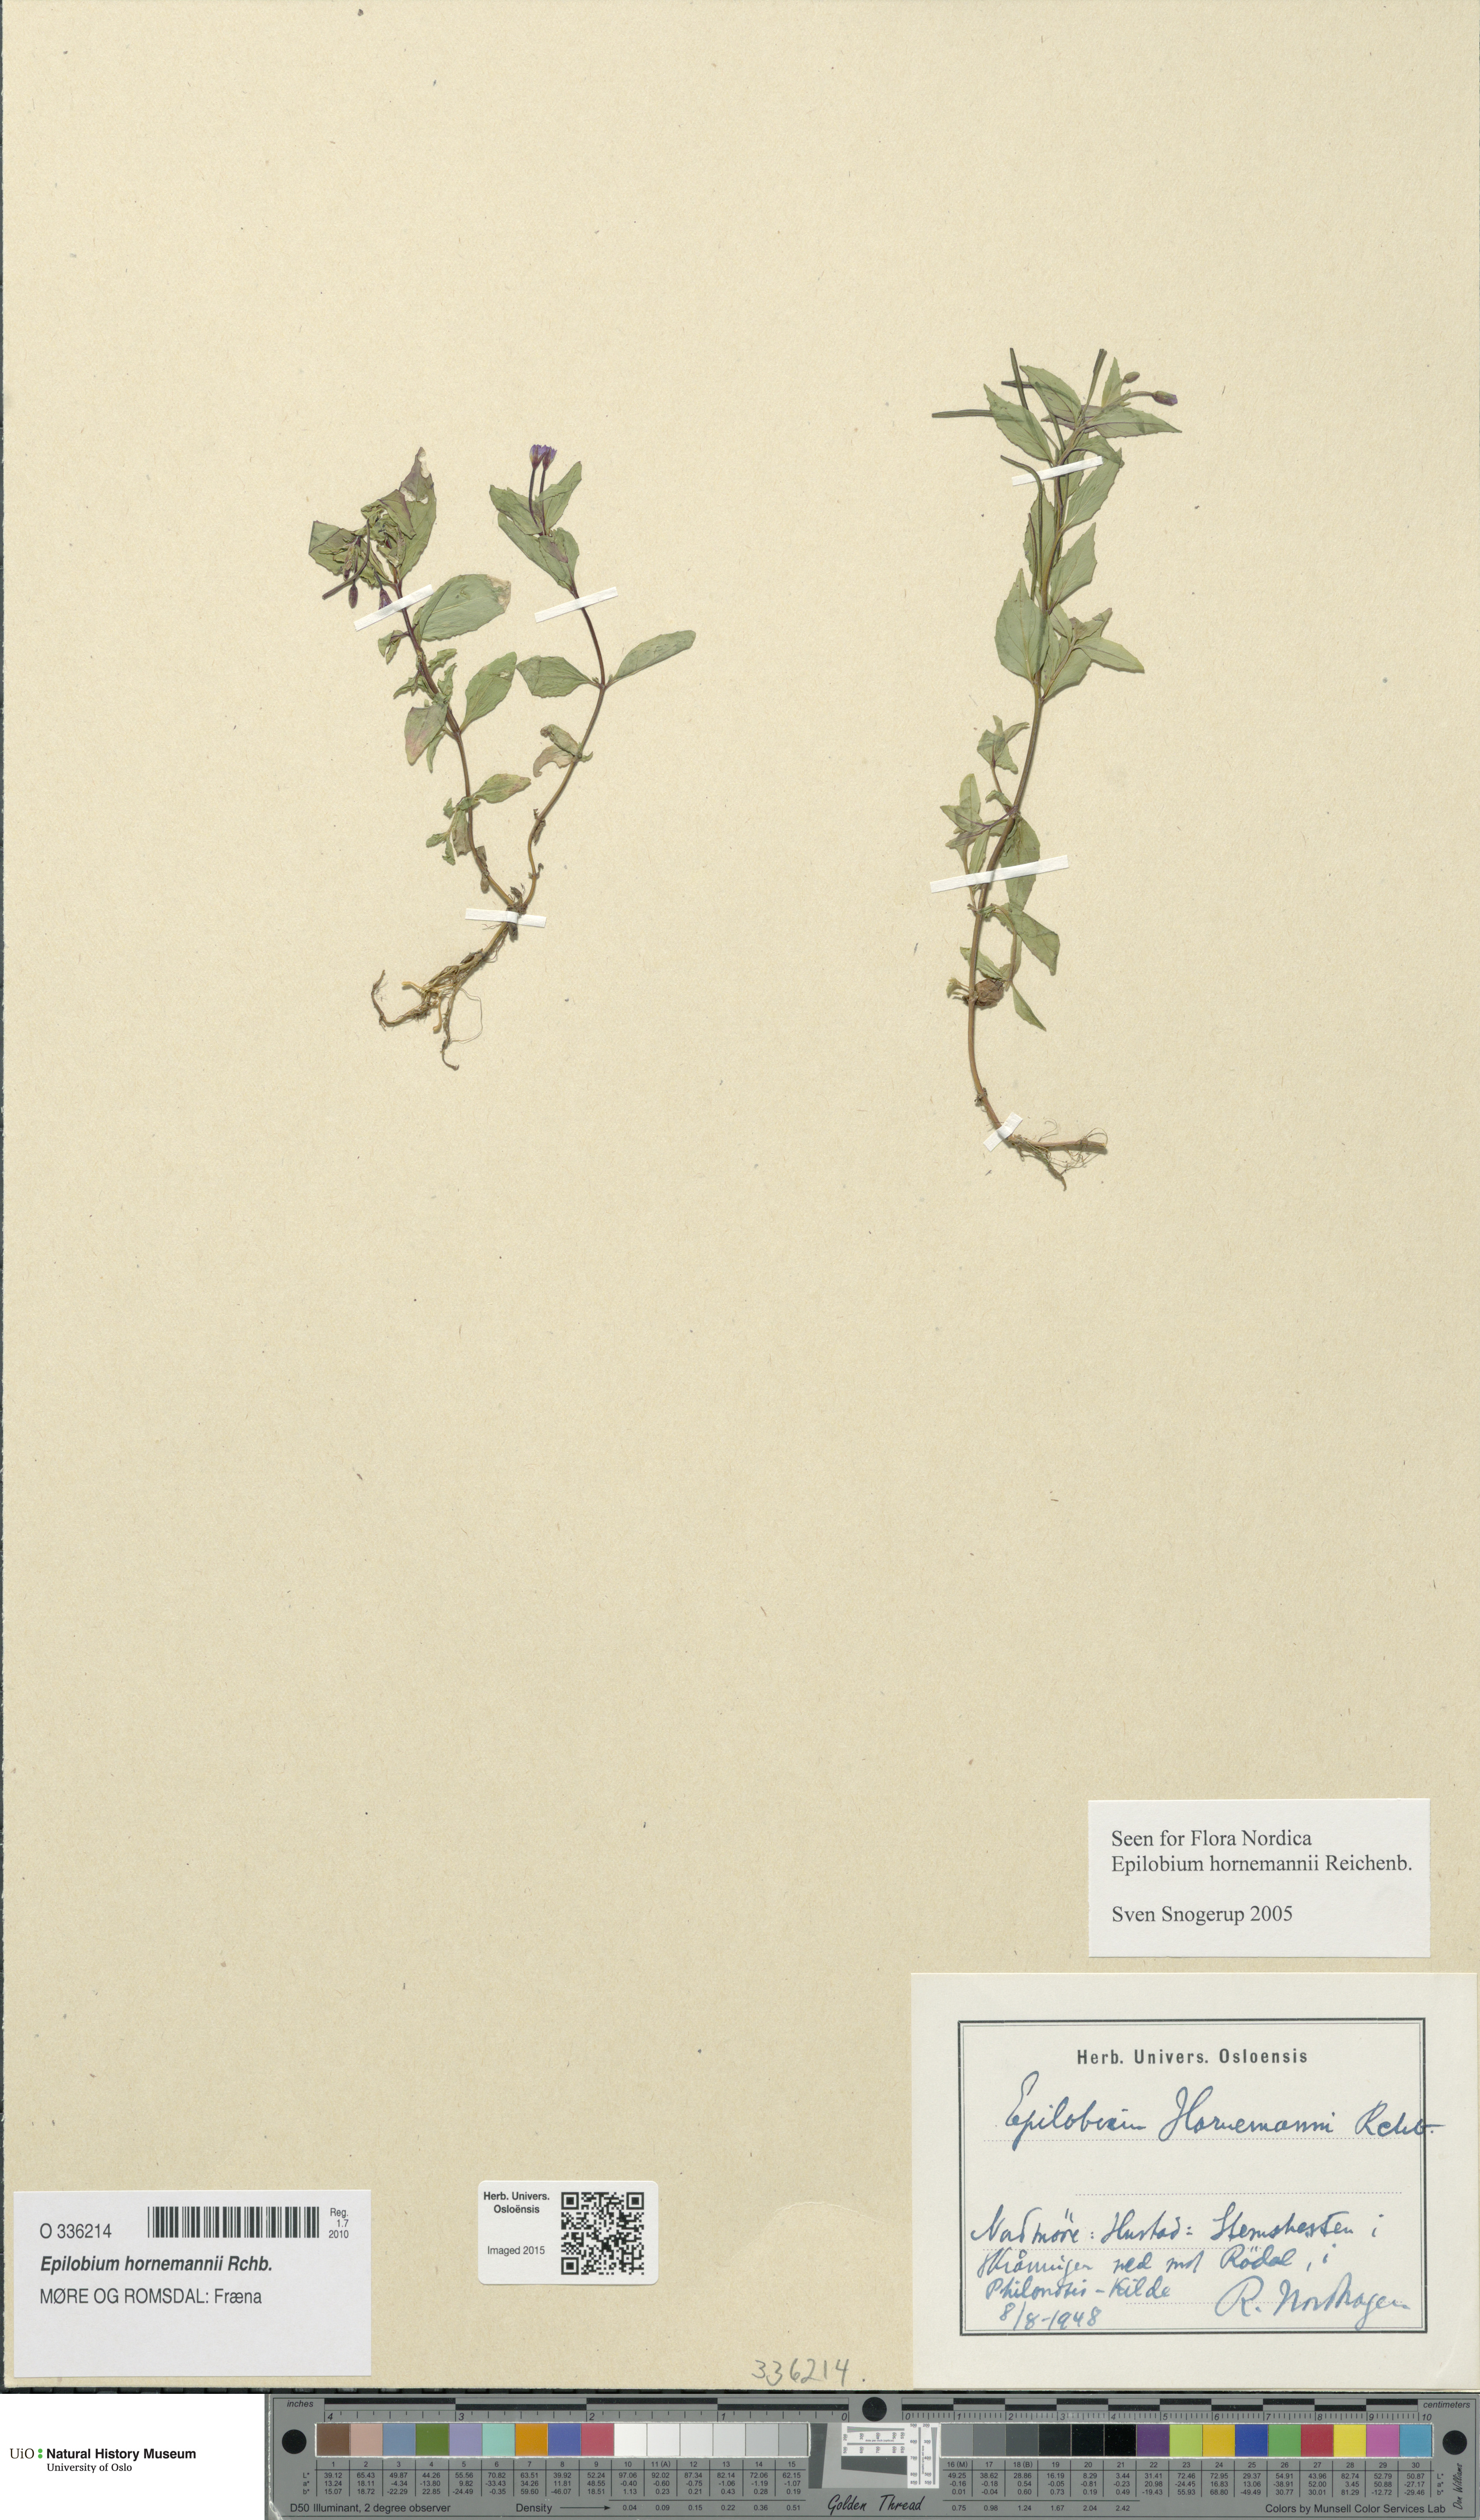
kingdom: Plantae
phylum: Tracheophyta
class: Magnoliopsida
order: Myrtales
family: Onagraceae
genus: Epilobium
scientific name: Epilobium hornemannii
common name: Hornemann's willowherb
